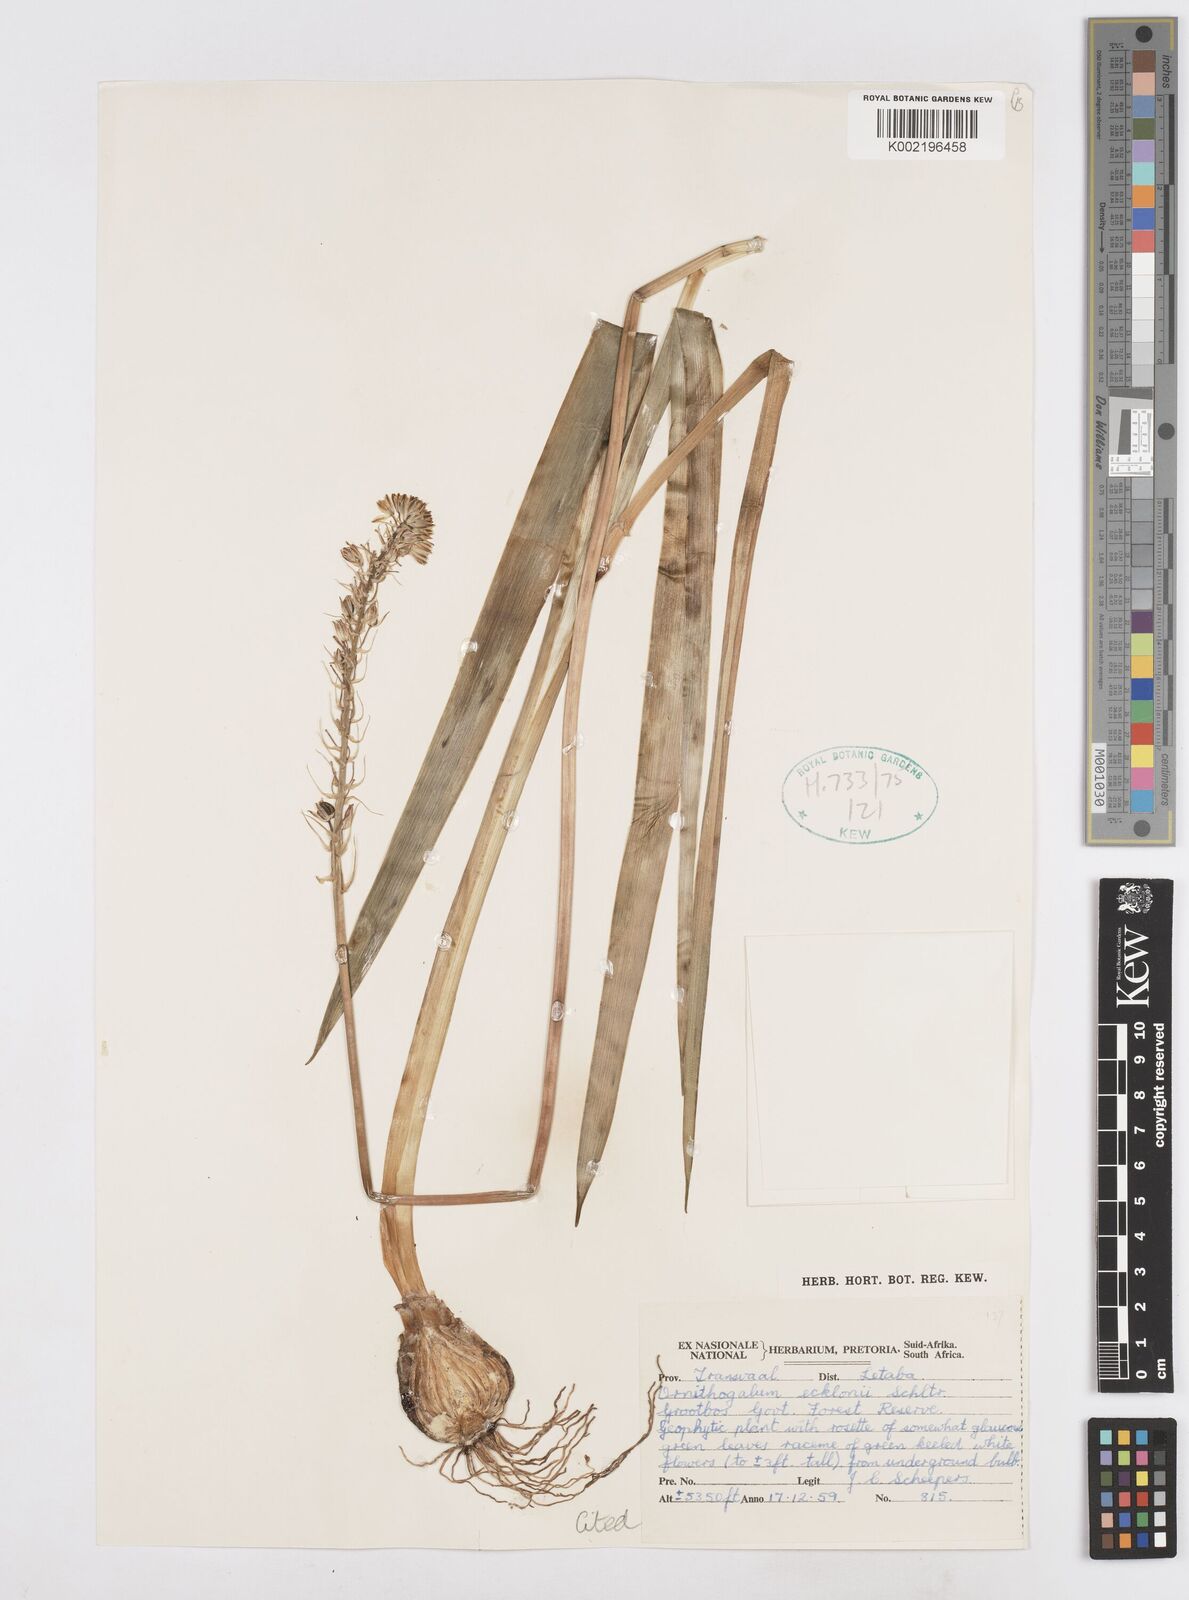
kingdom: Plantae
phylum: Tracheophyta
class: Liliopsida
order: Asparagales
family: Asparagaceae
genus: Albuca
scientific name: Albuca virens
